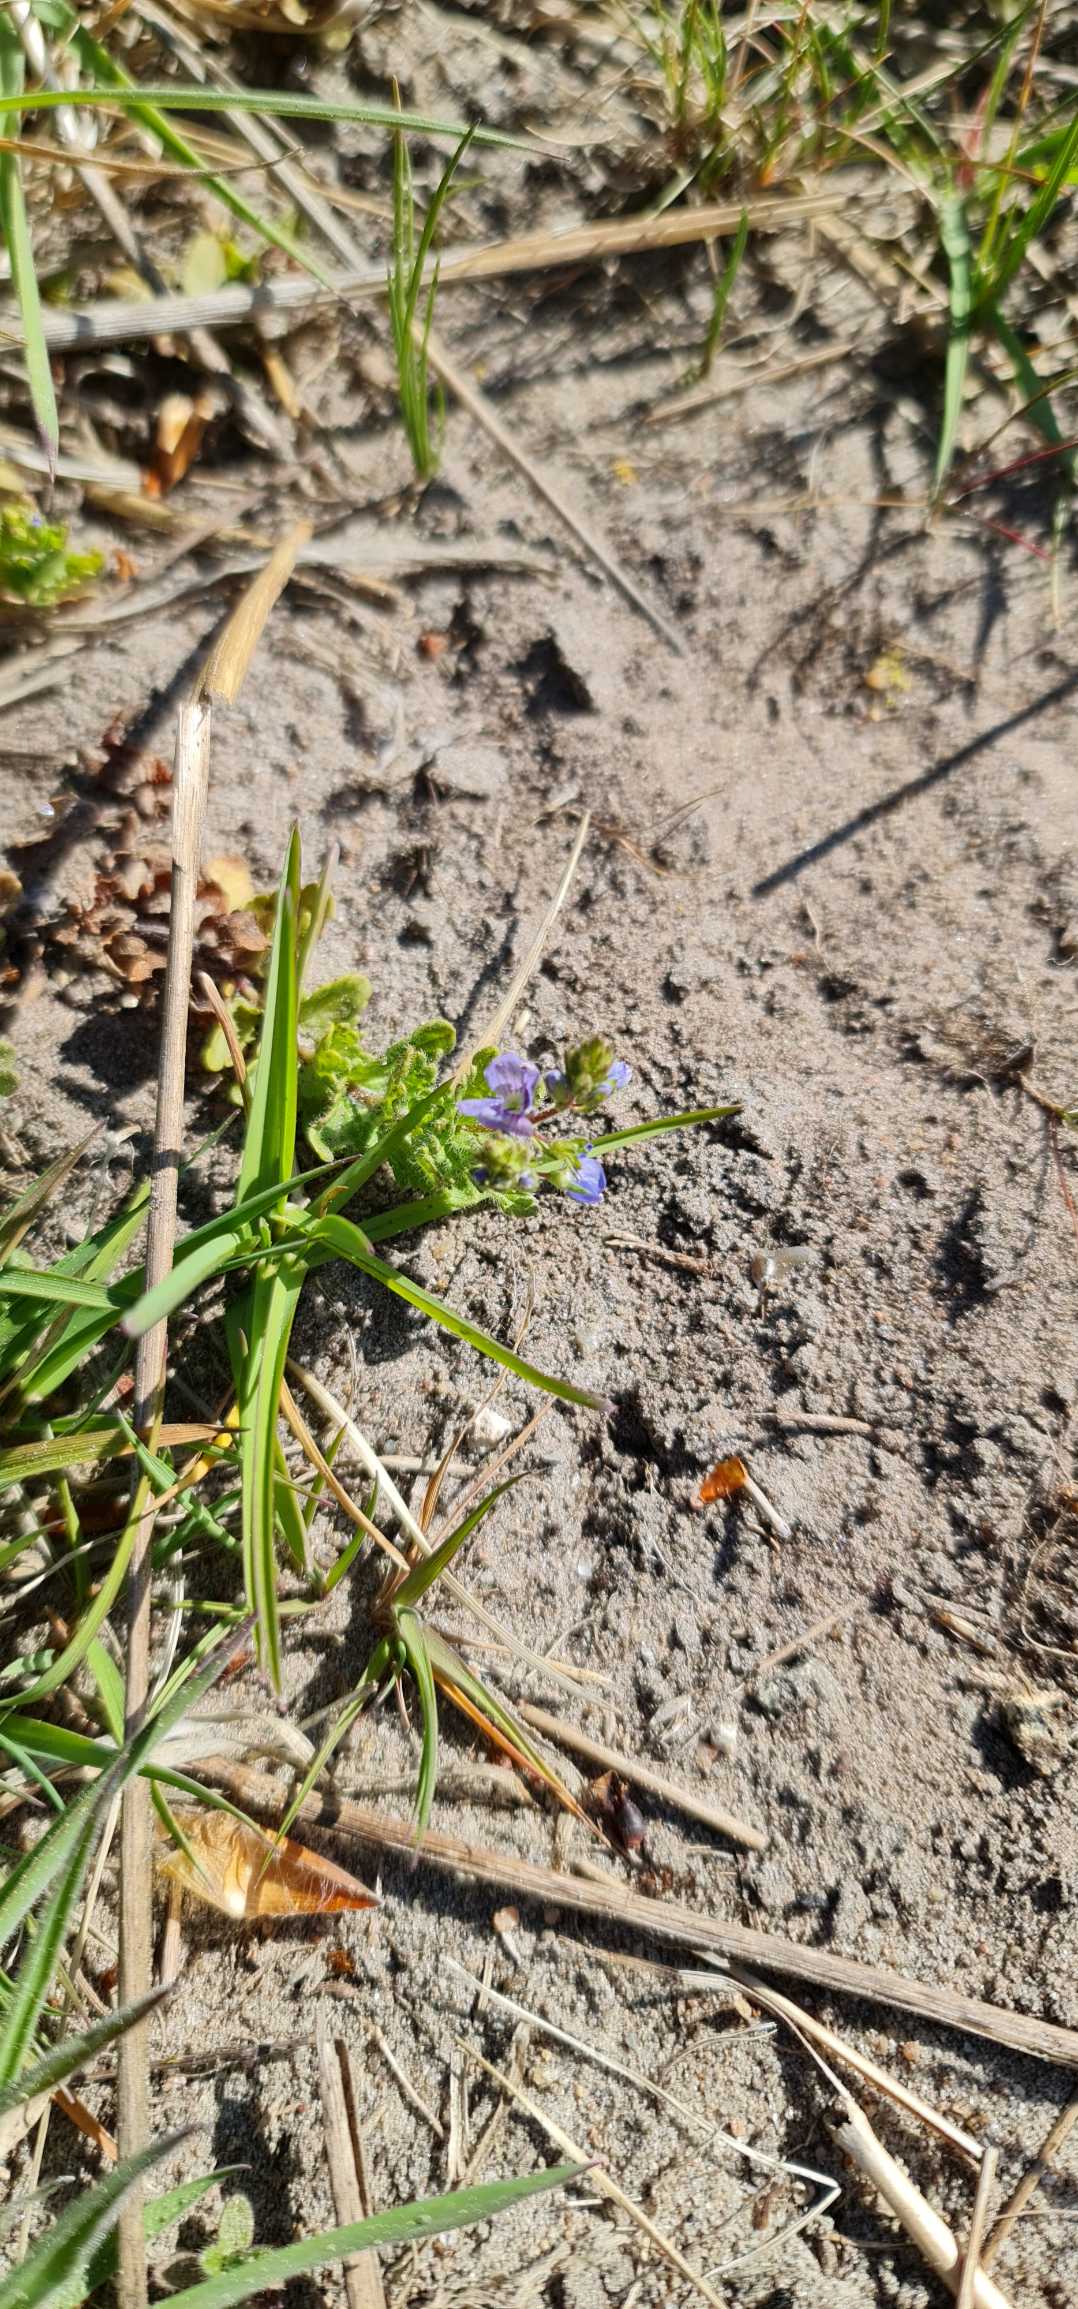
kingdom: Plantae
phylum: Tracheophyta
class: Magnoliopsida
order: Lamiales
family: Plantaginaceae
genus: Veronica
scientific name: Veronica
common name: Ærenprisslægten
